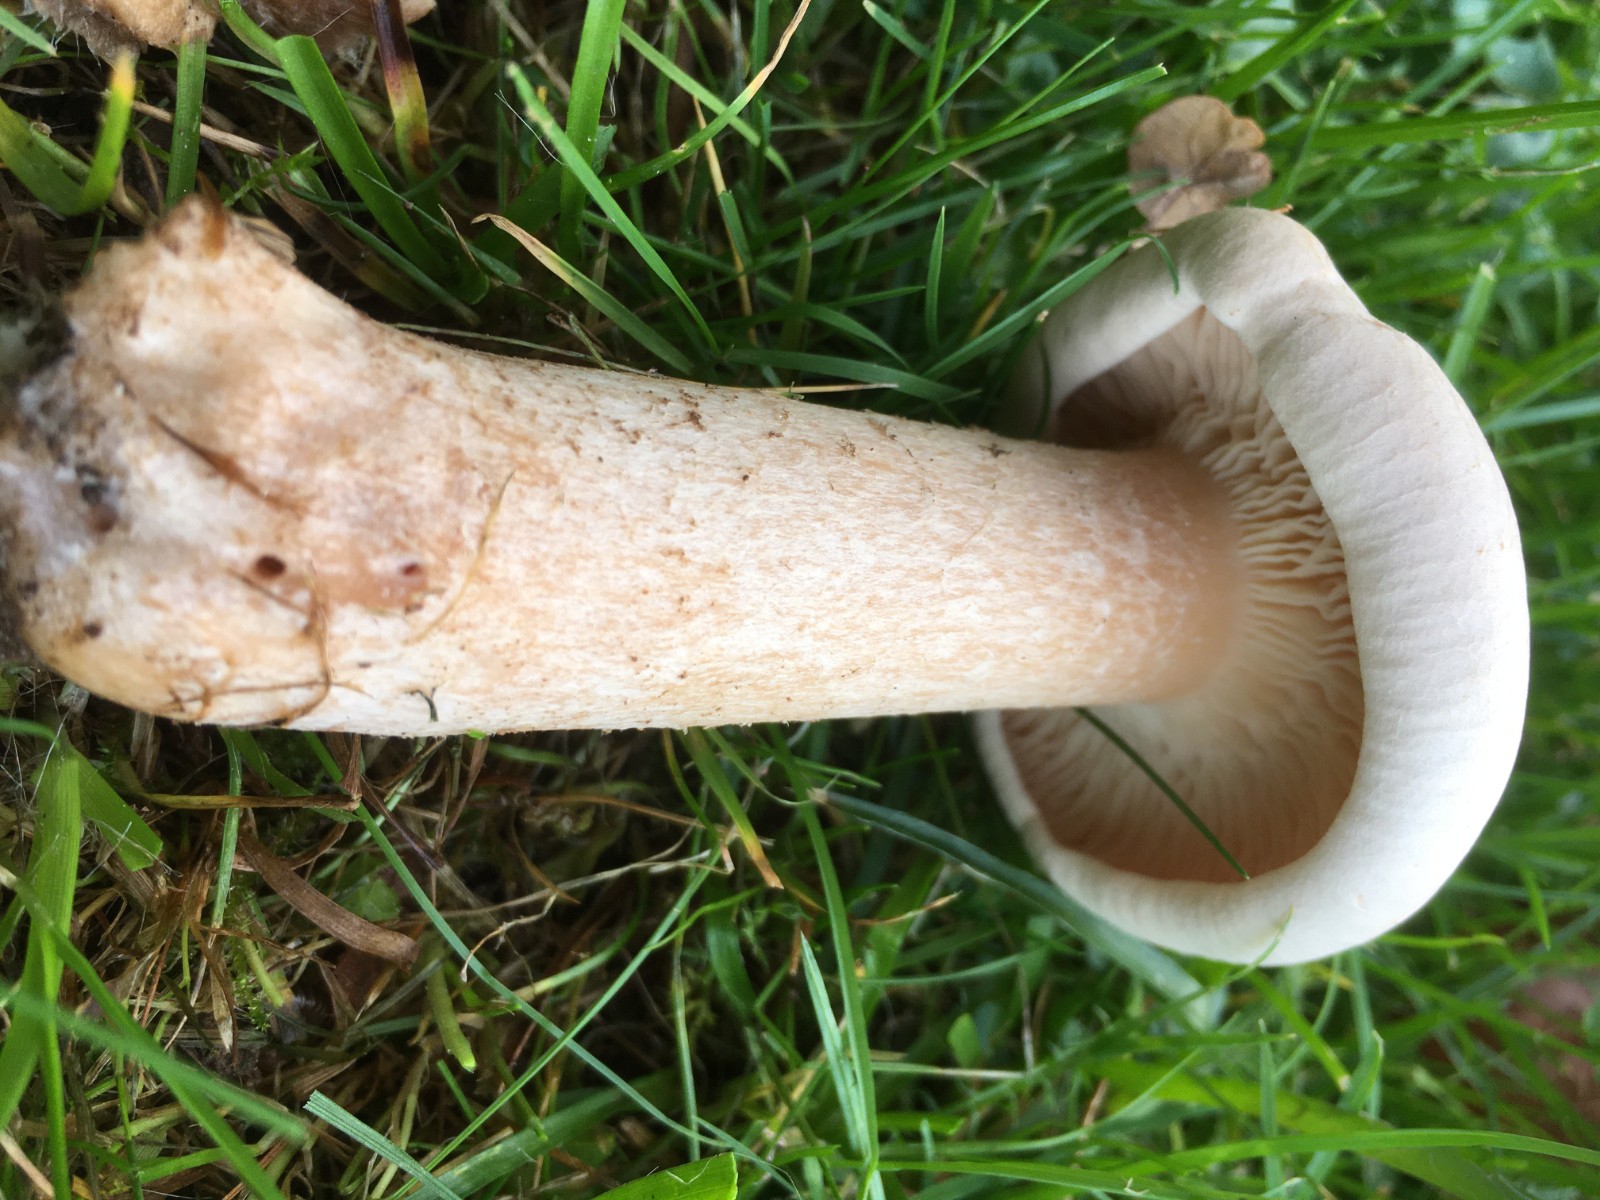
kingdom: Fungi
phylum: Basidiomycota
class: Agaricomycetes
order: Agaricales
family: Tricholomataceae
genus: Infundibulicybe
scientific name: Infundibulicybe geotropa
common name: stor tragthat
